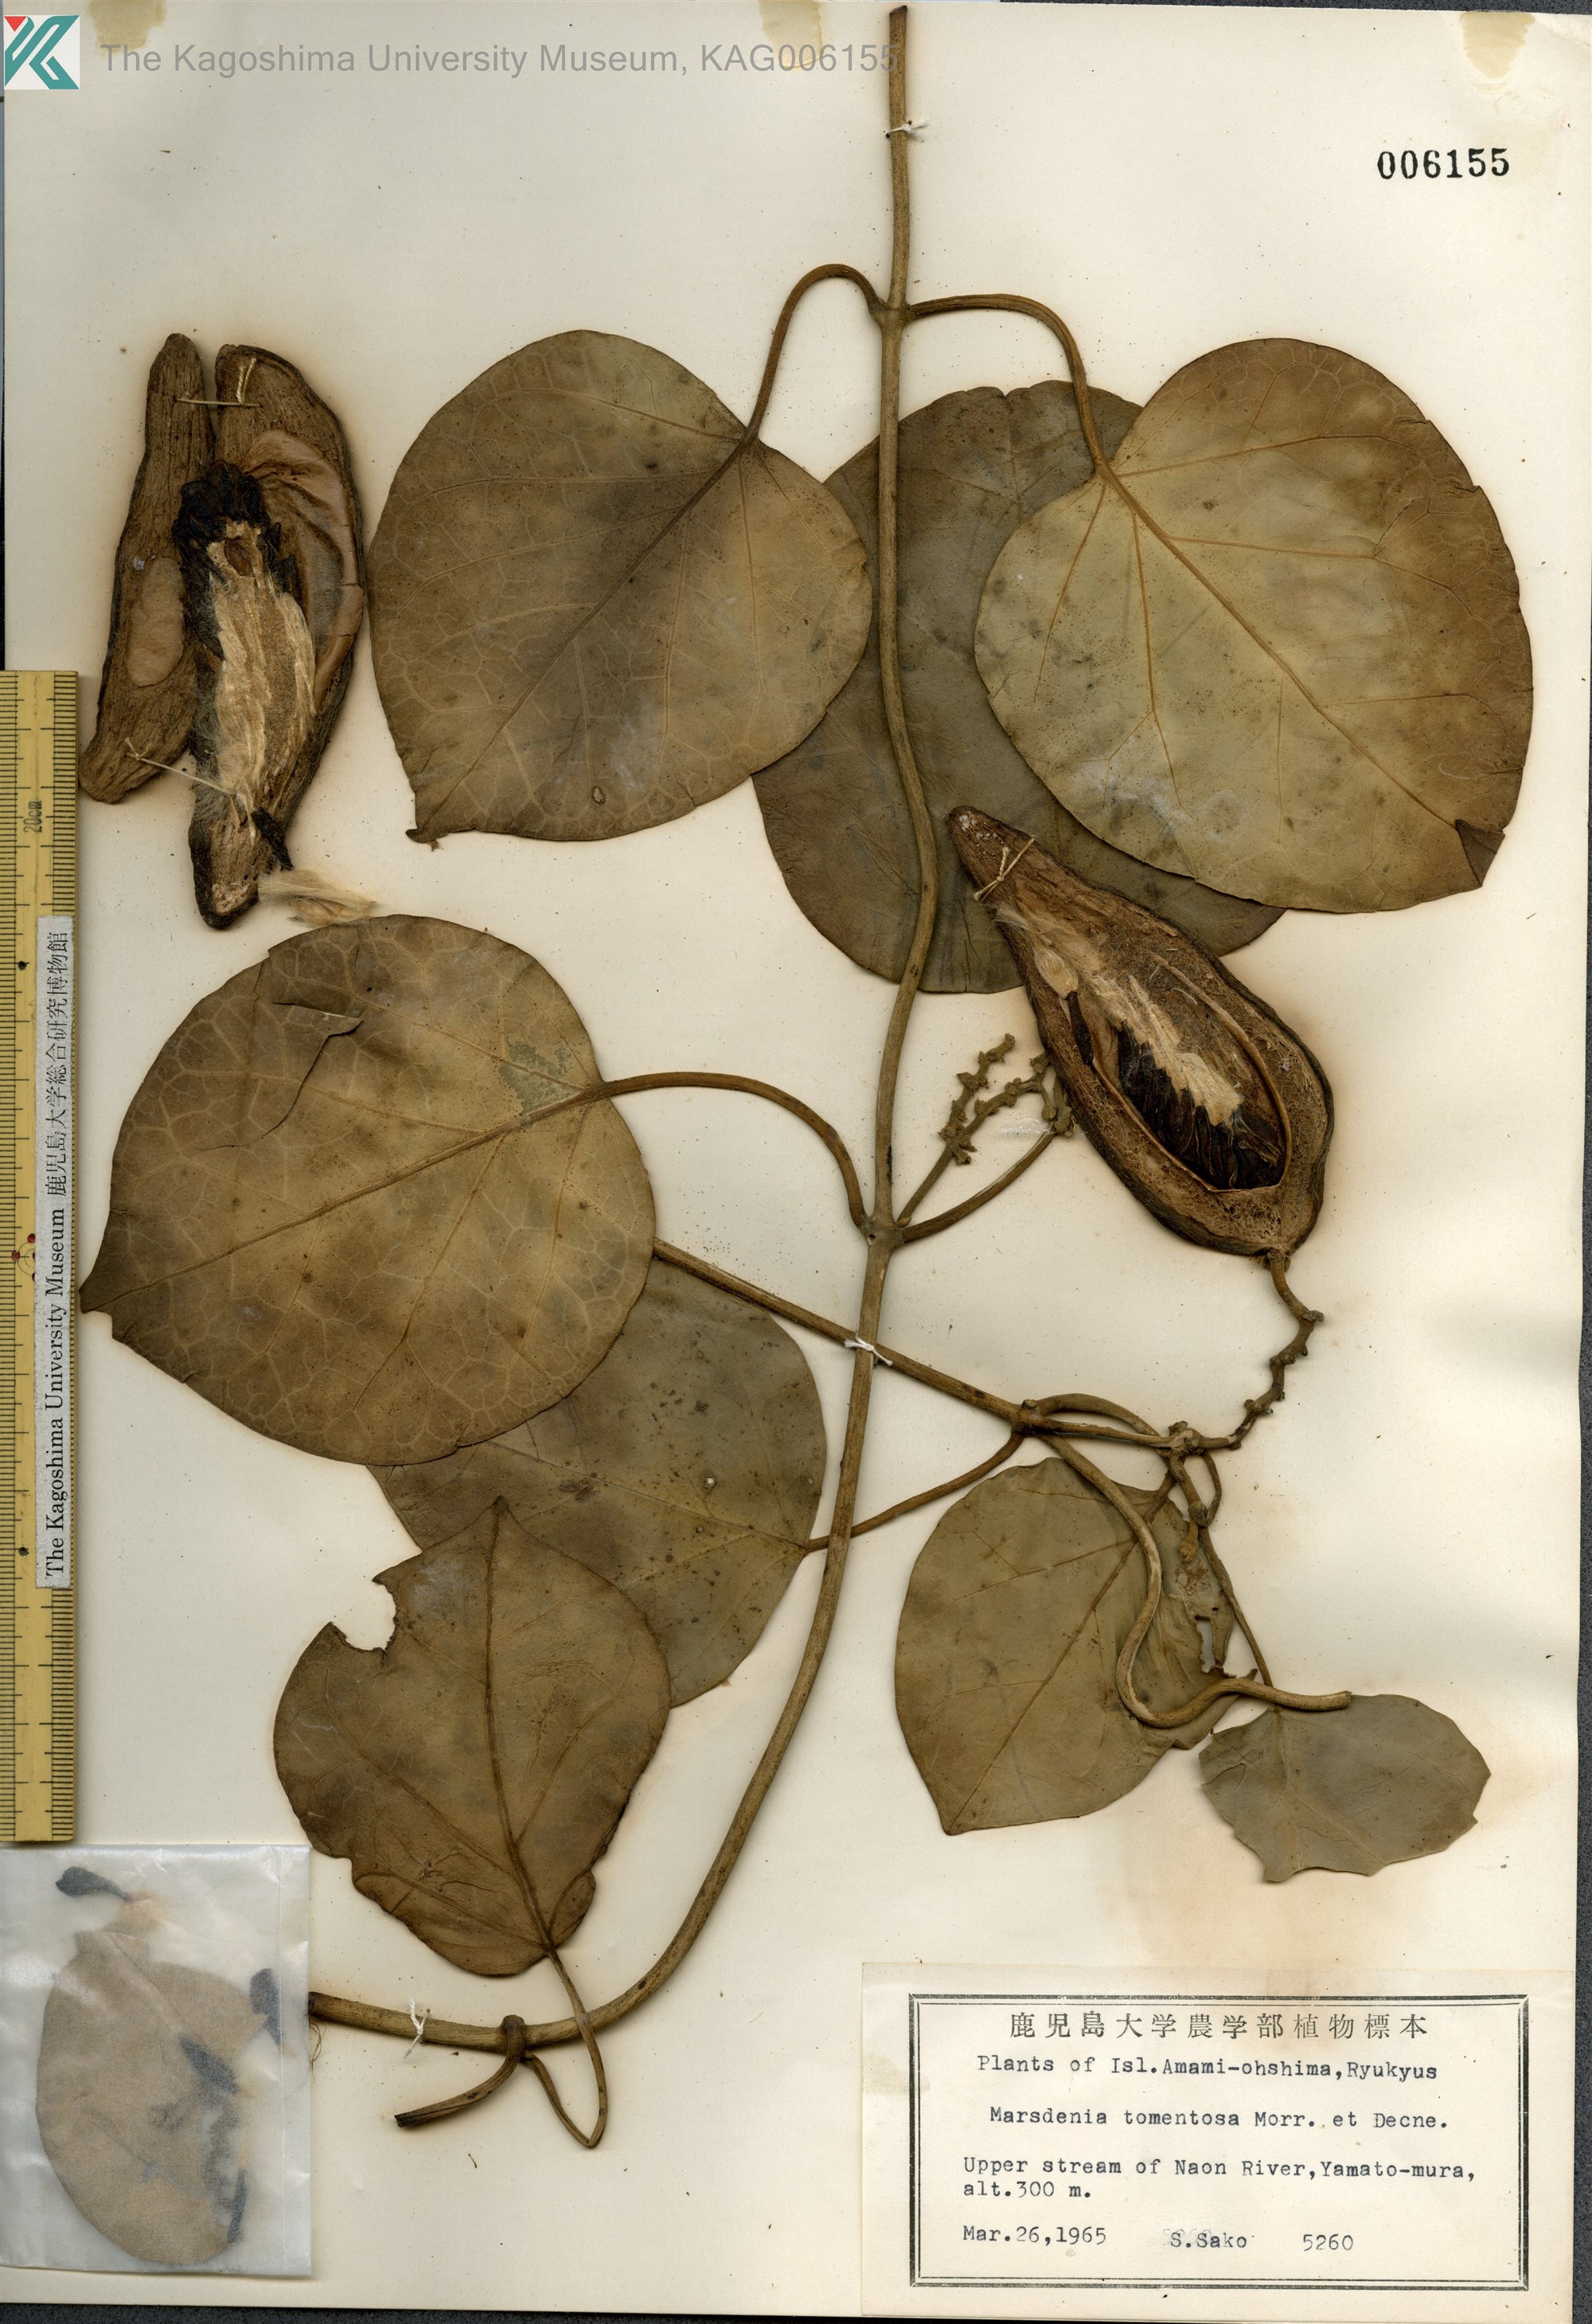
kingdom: Plantae
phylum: Tracheophyta
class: Magnoliopsida
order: Gentianales
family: Apocynaceae
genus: Sinomarsdenia
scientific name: Sinomarsdenia tomentosa
